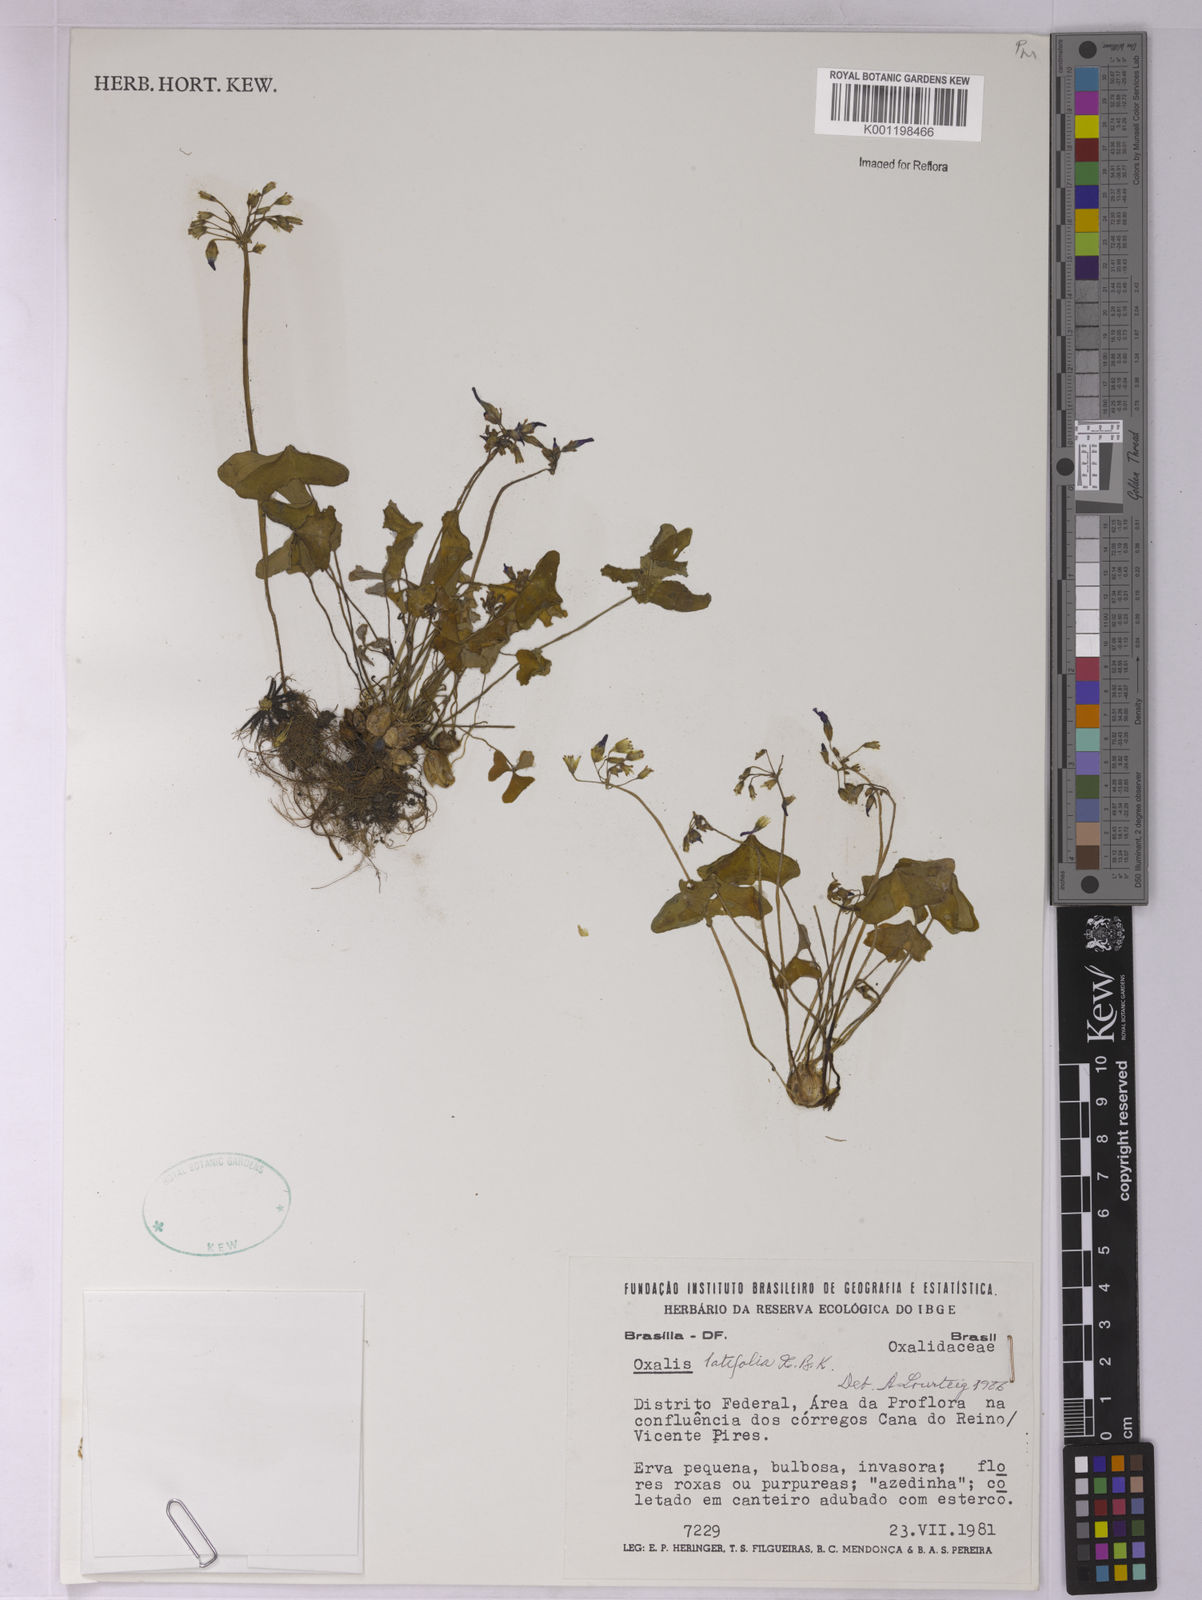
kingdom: Plantae
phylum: Tracheophyta
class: Magnoliopsida
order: Oxalidales
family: Oxalidaceae
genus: Oxalis
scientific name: Oxalis latifolia
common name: Garden pink-sorrel
